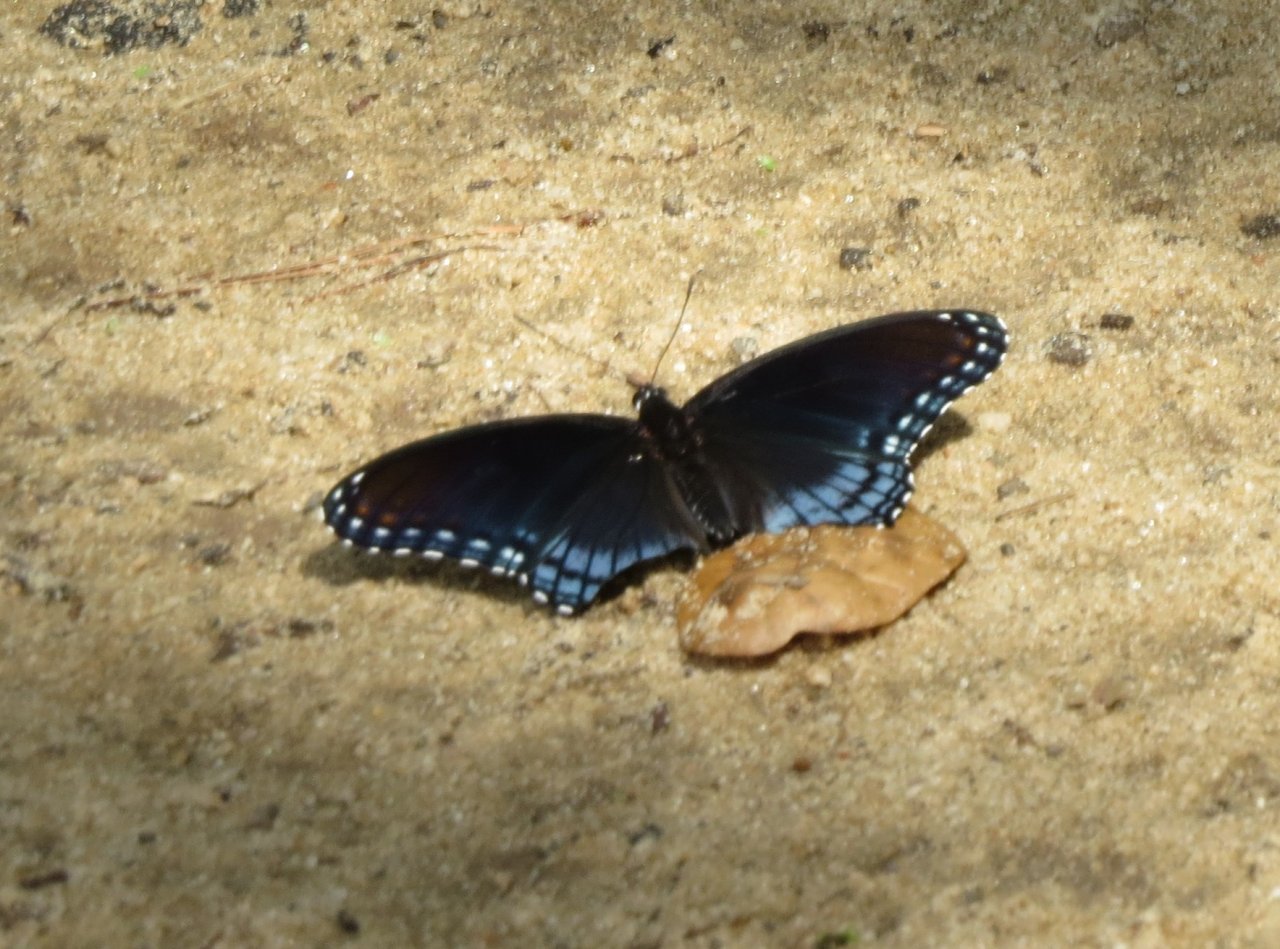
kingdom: Animalia
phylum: Arthropoda
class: Insecta
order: Lepidoptera
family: Nymphalidae
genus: Limenitis
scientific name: Limenitis astyanax
